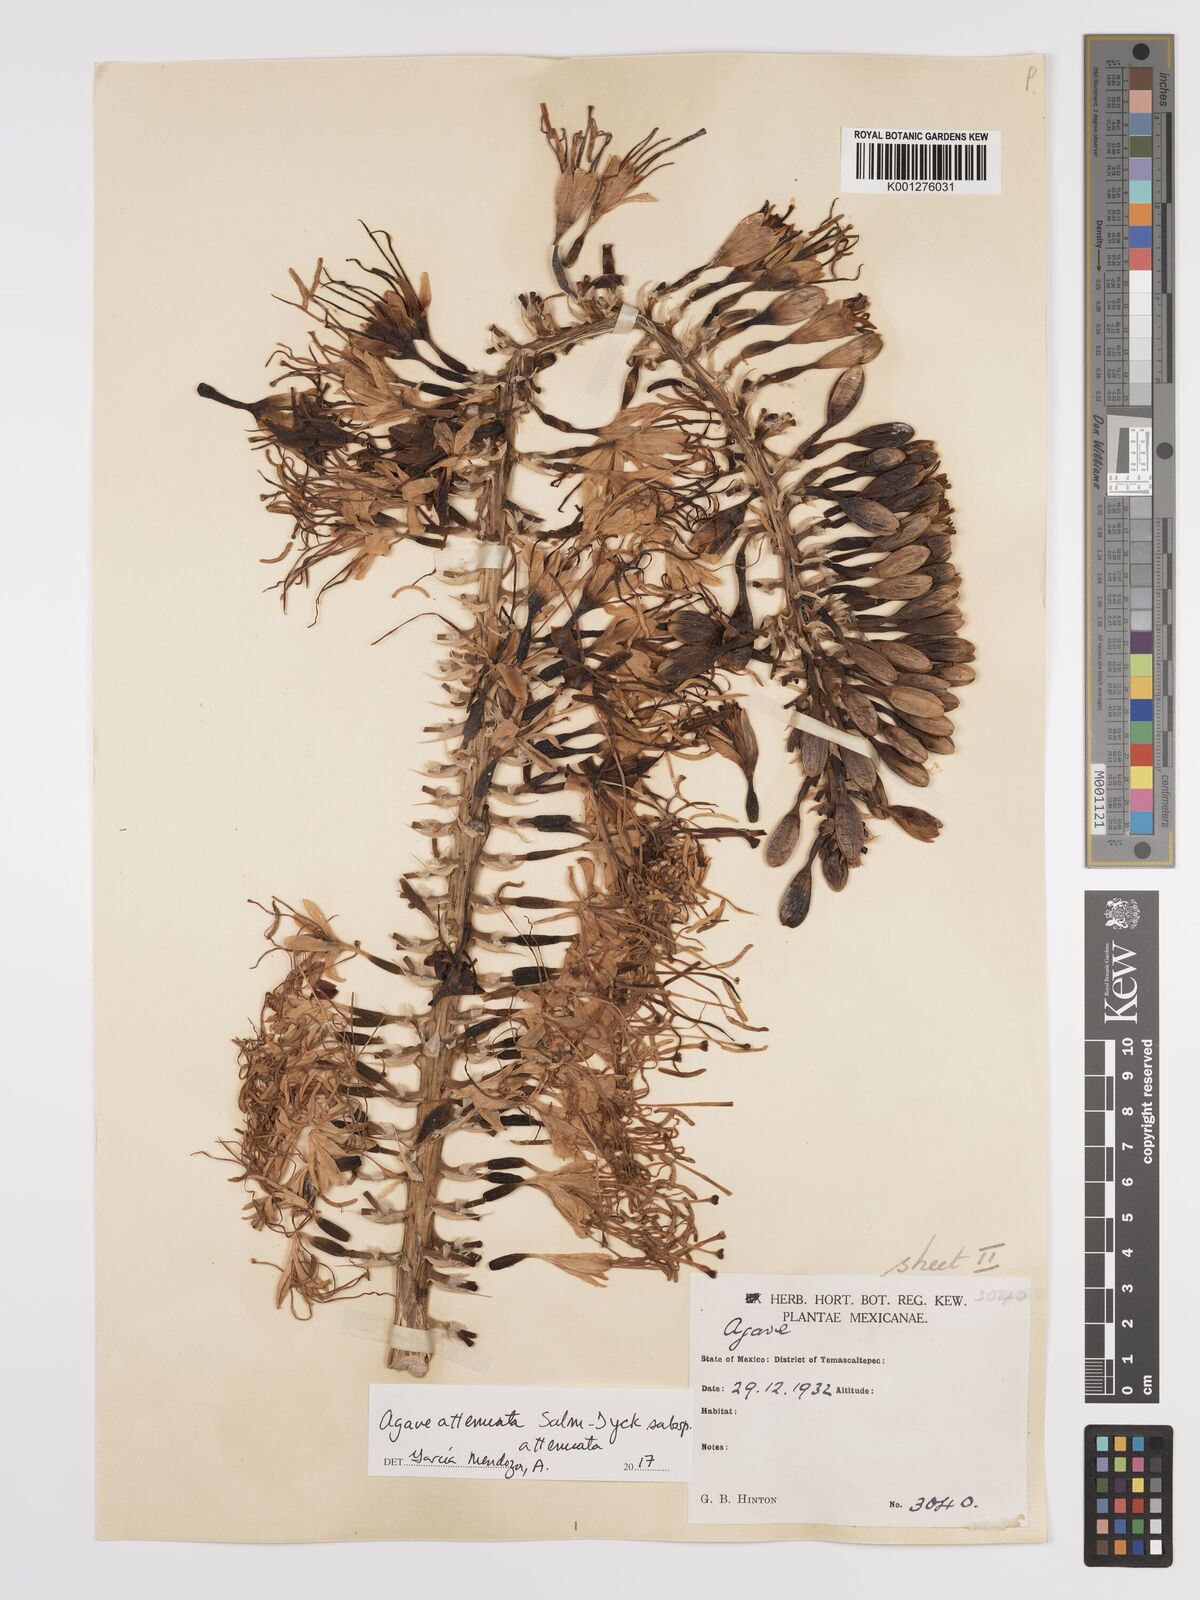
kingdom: Plantae
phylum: Tracheophyta
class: Liliopsida
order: Asparagales
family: Asparagaceae
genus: Agave
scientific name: Agave attenuata
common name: Fox tail agave
